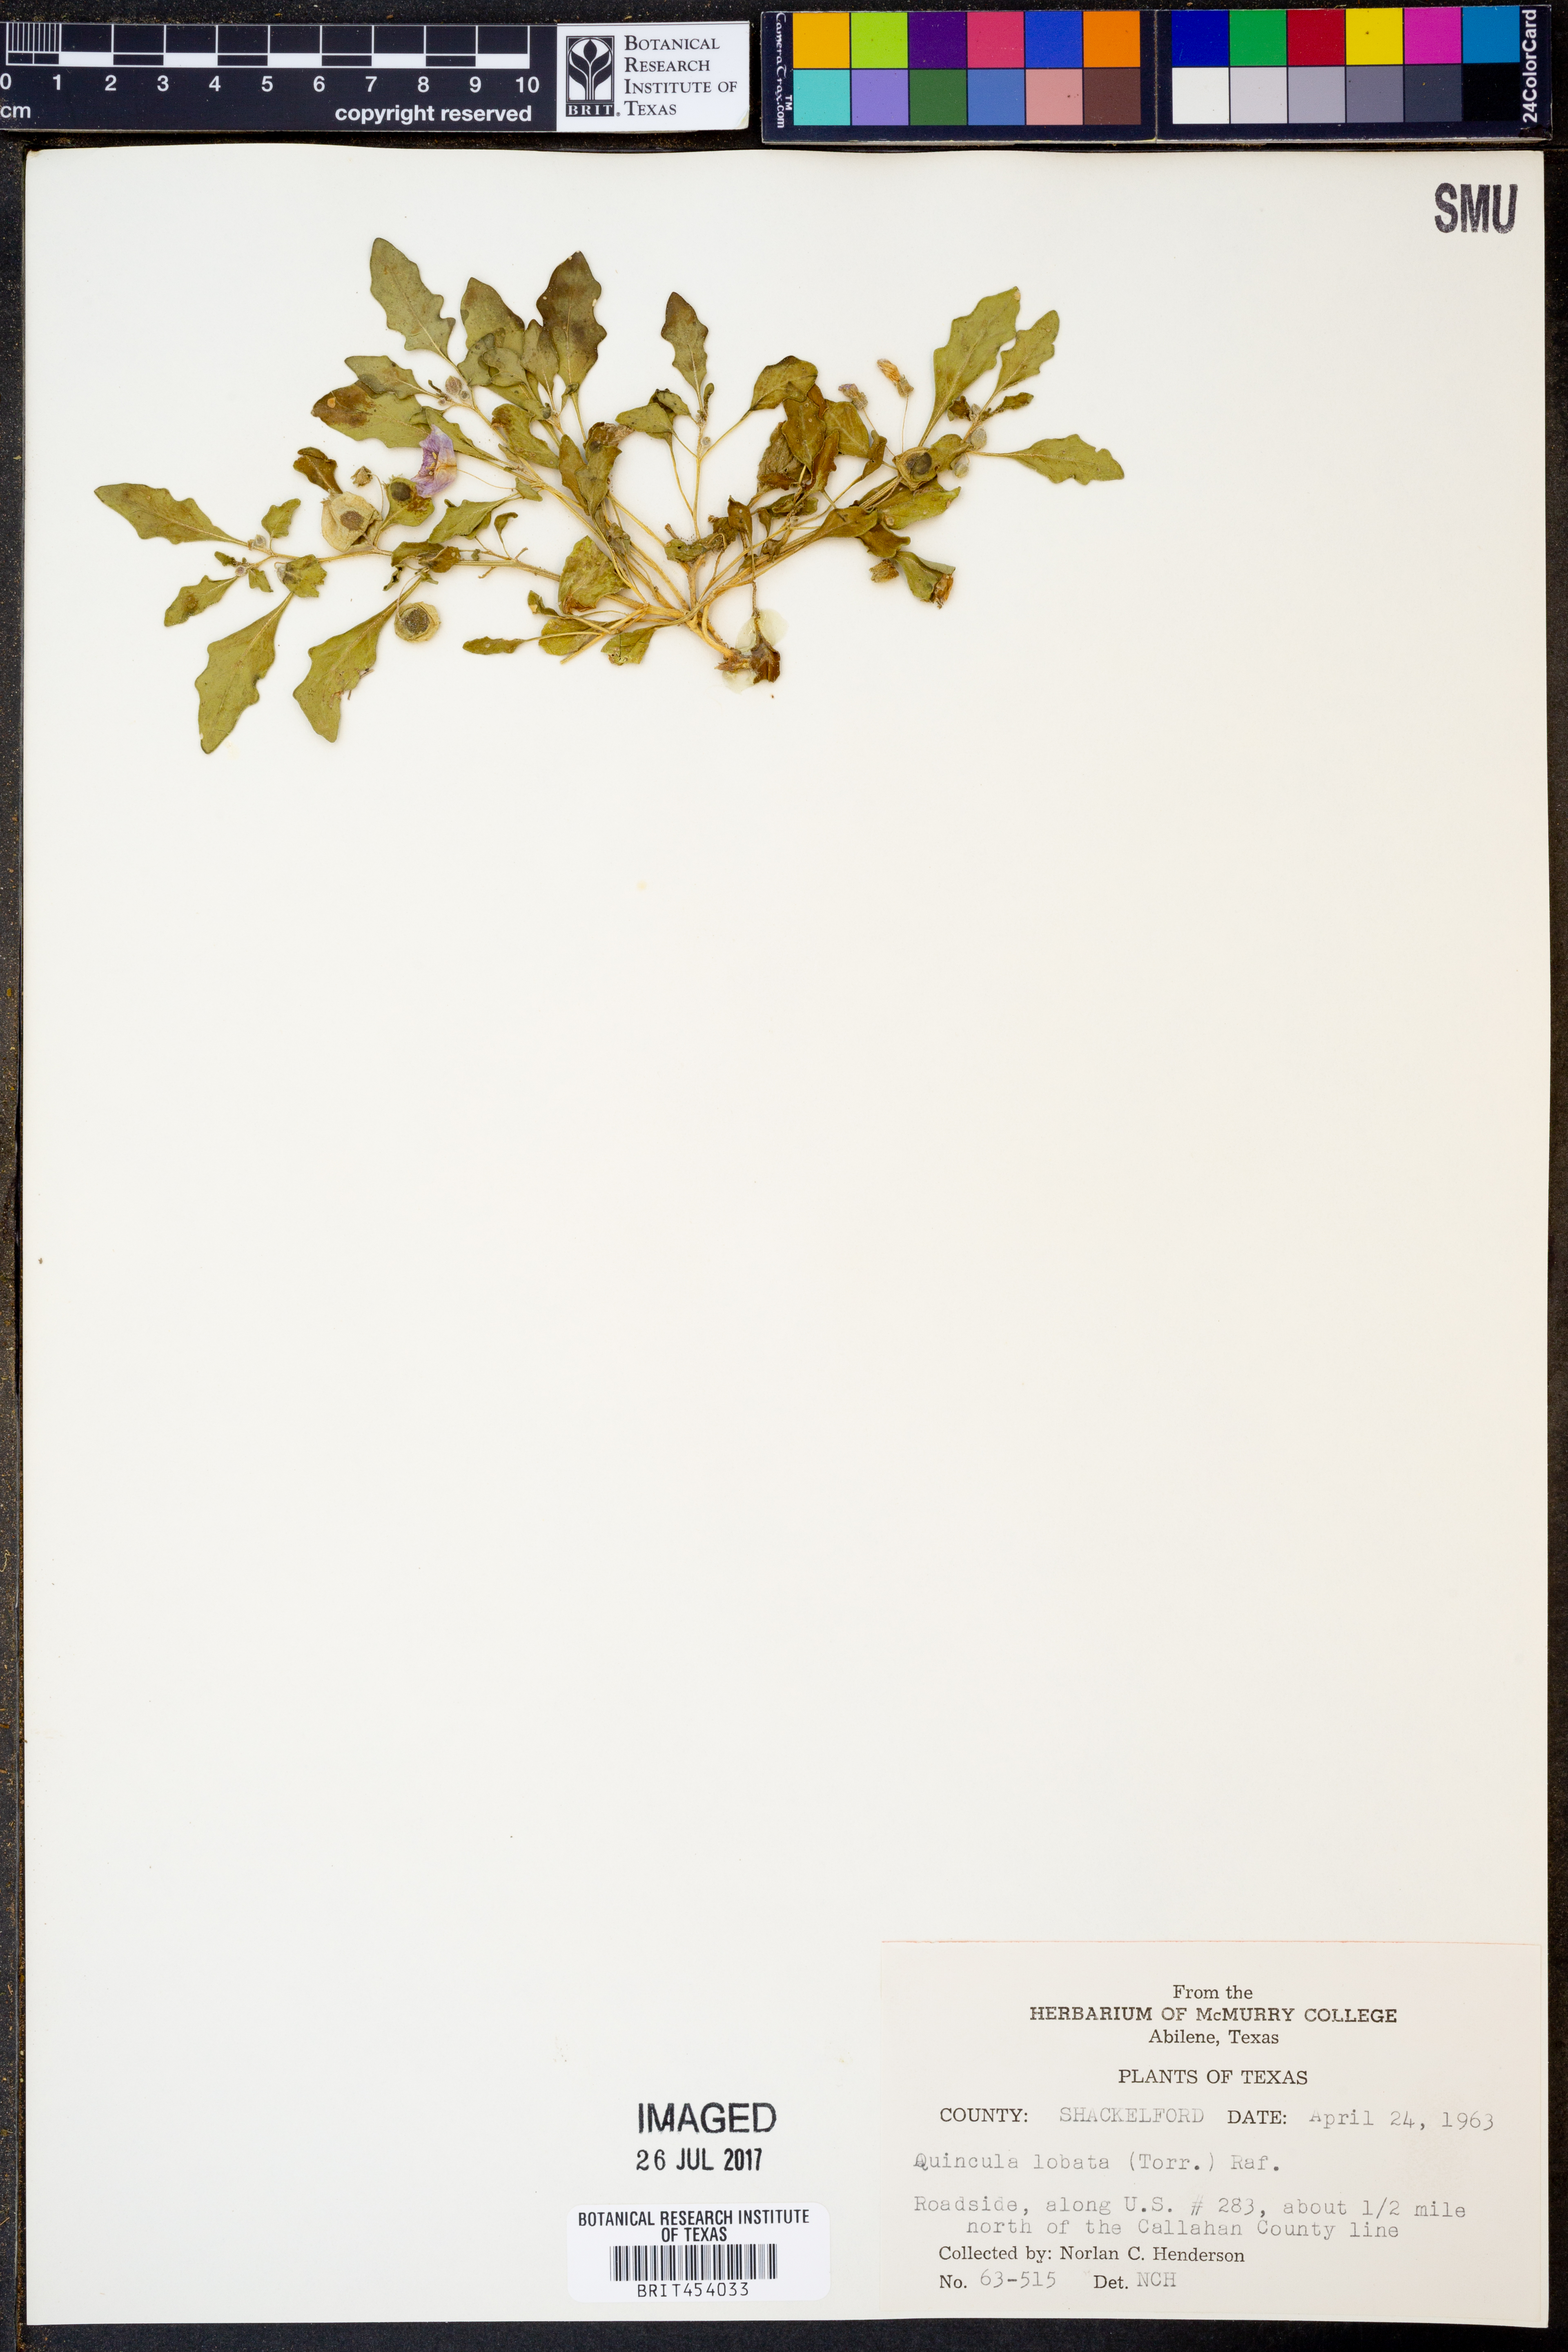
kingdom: Plantae
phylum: Tracheophyta
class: Magnoliopsida
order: Solanales
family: Solanaceae
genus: Quincula
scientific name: Quincula lobata
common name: Purple-ground-cherry
